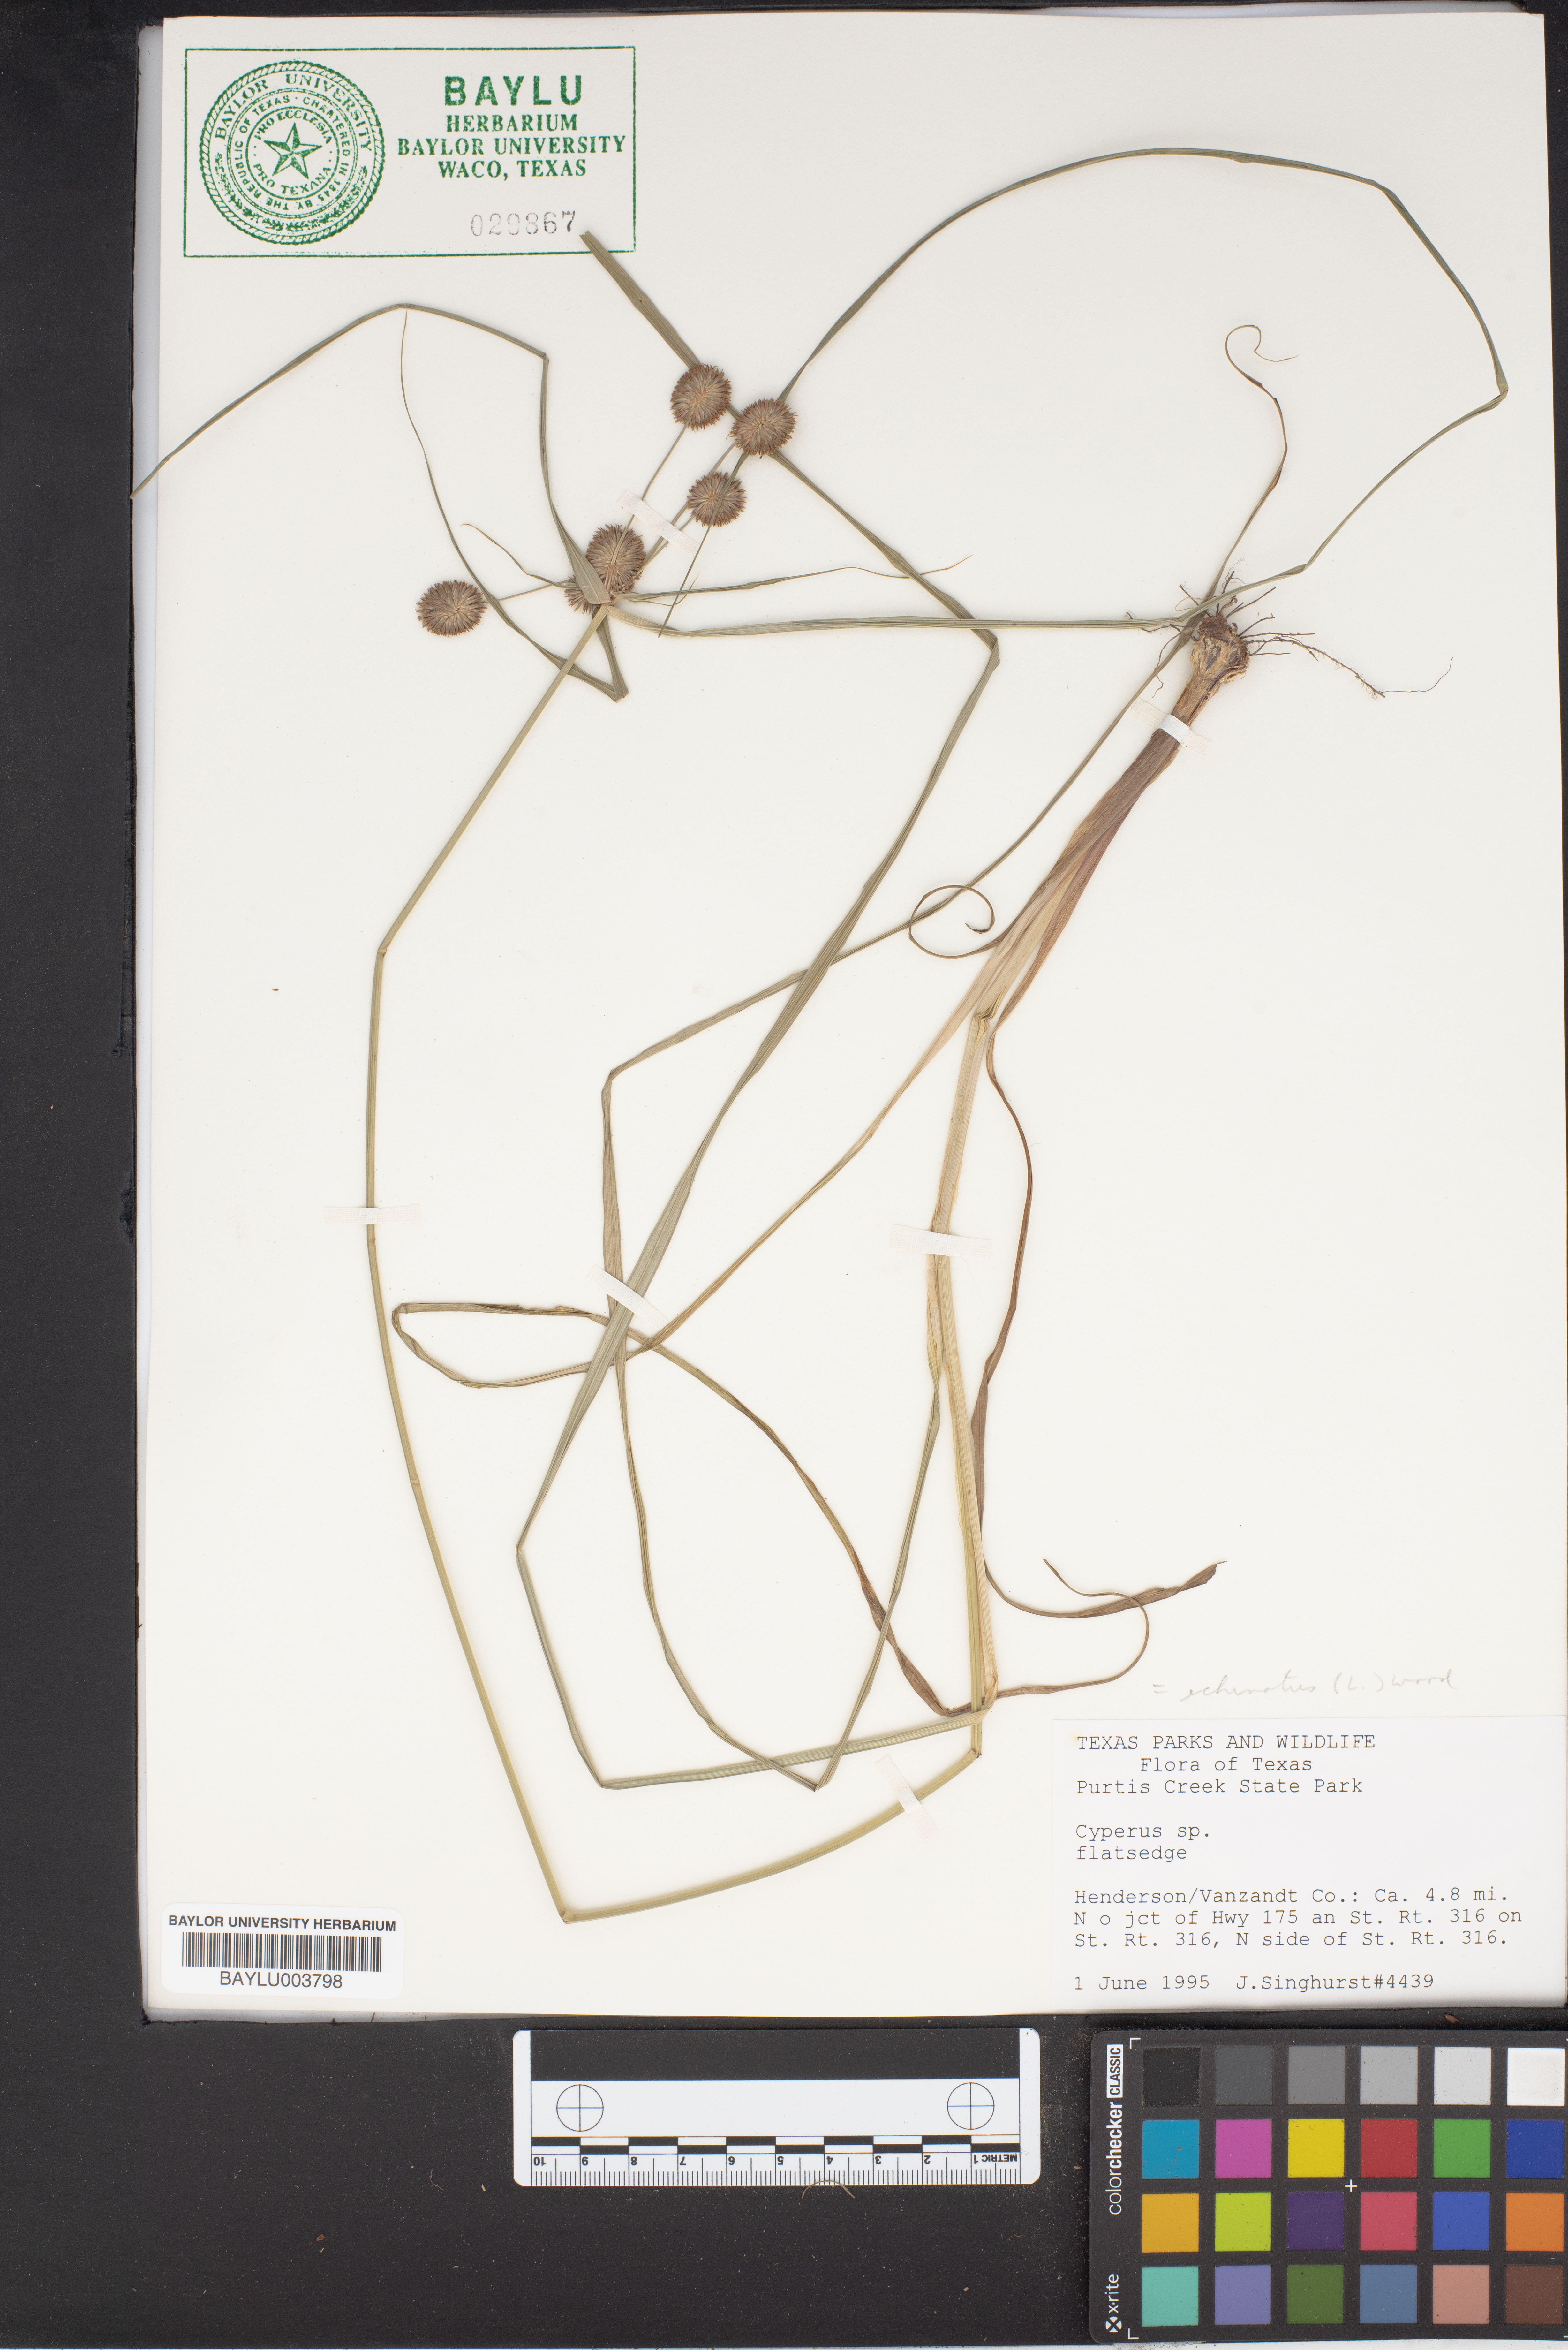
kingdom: Plantae
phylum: Tracheophyta
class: Liliopsida
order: Poales
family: Cyperaceae
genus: Cyperus
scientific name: Cyperus echinatus
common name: Teasel sedge
